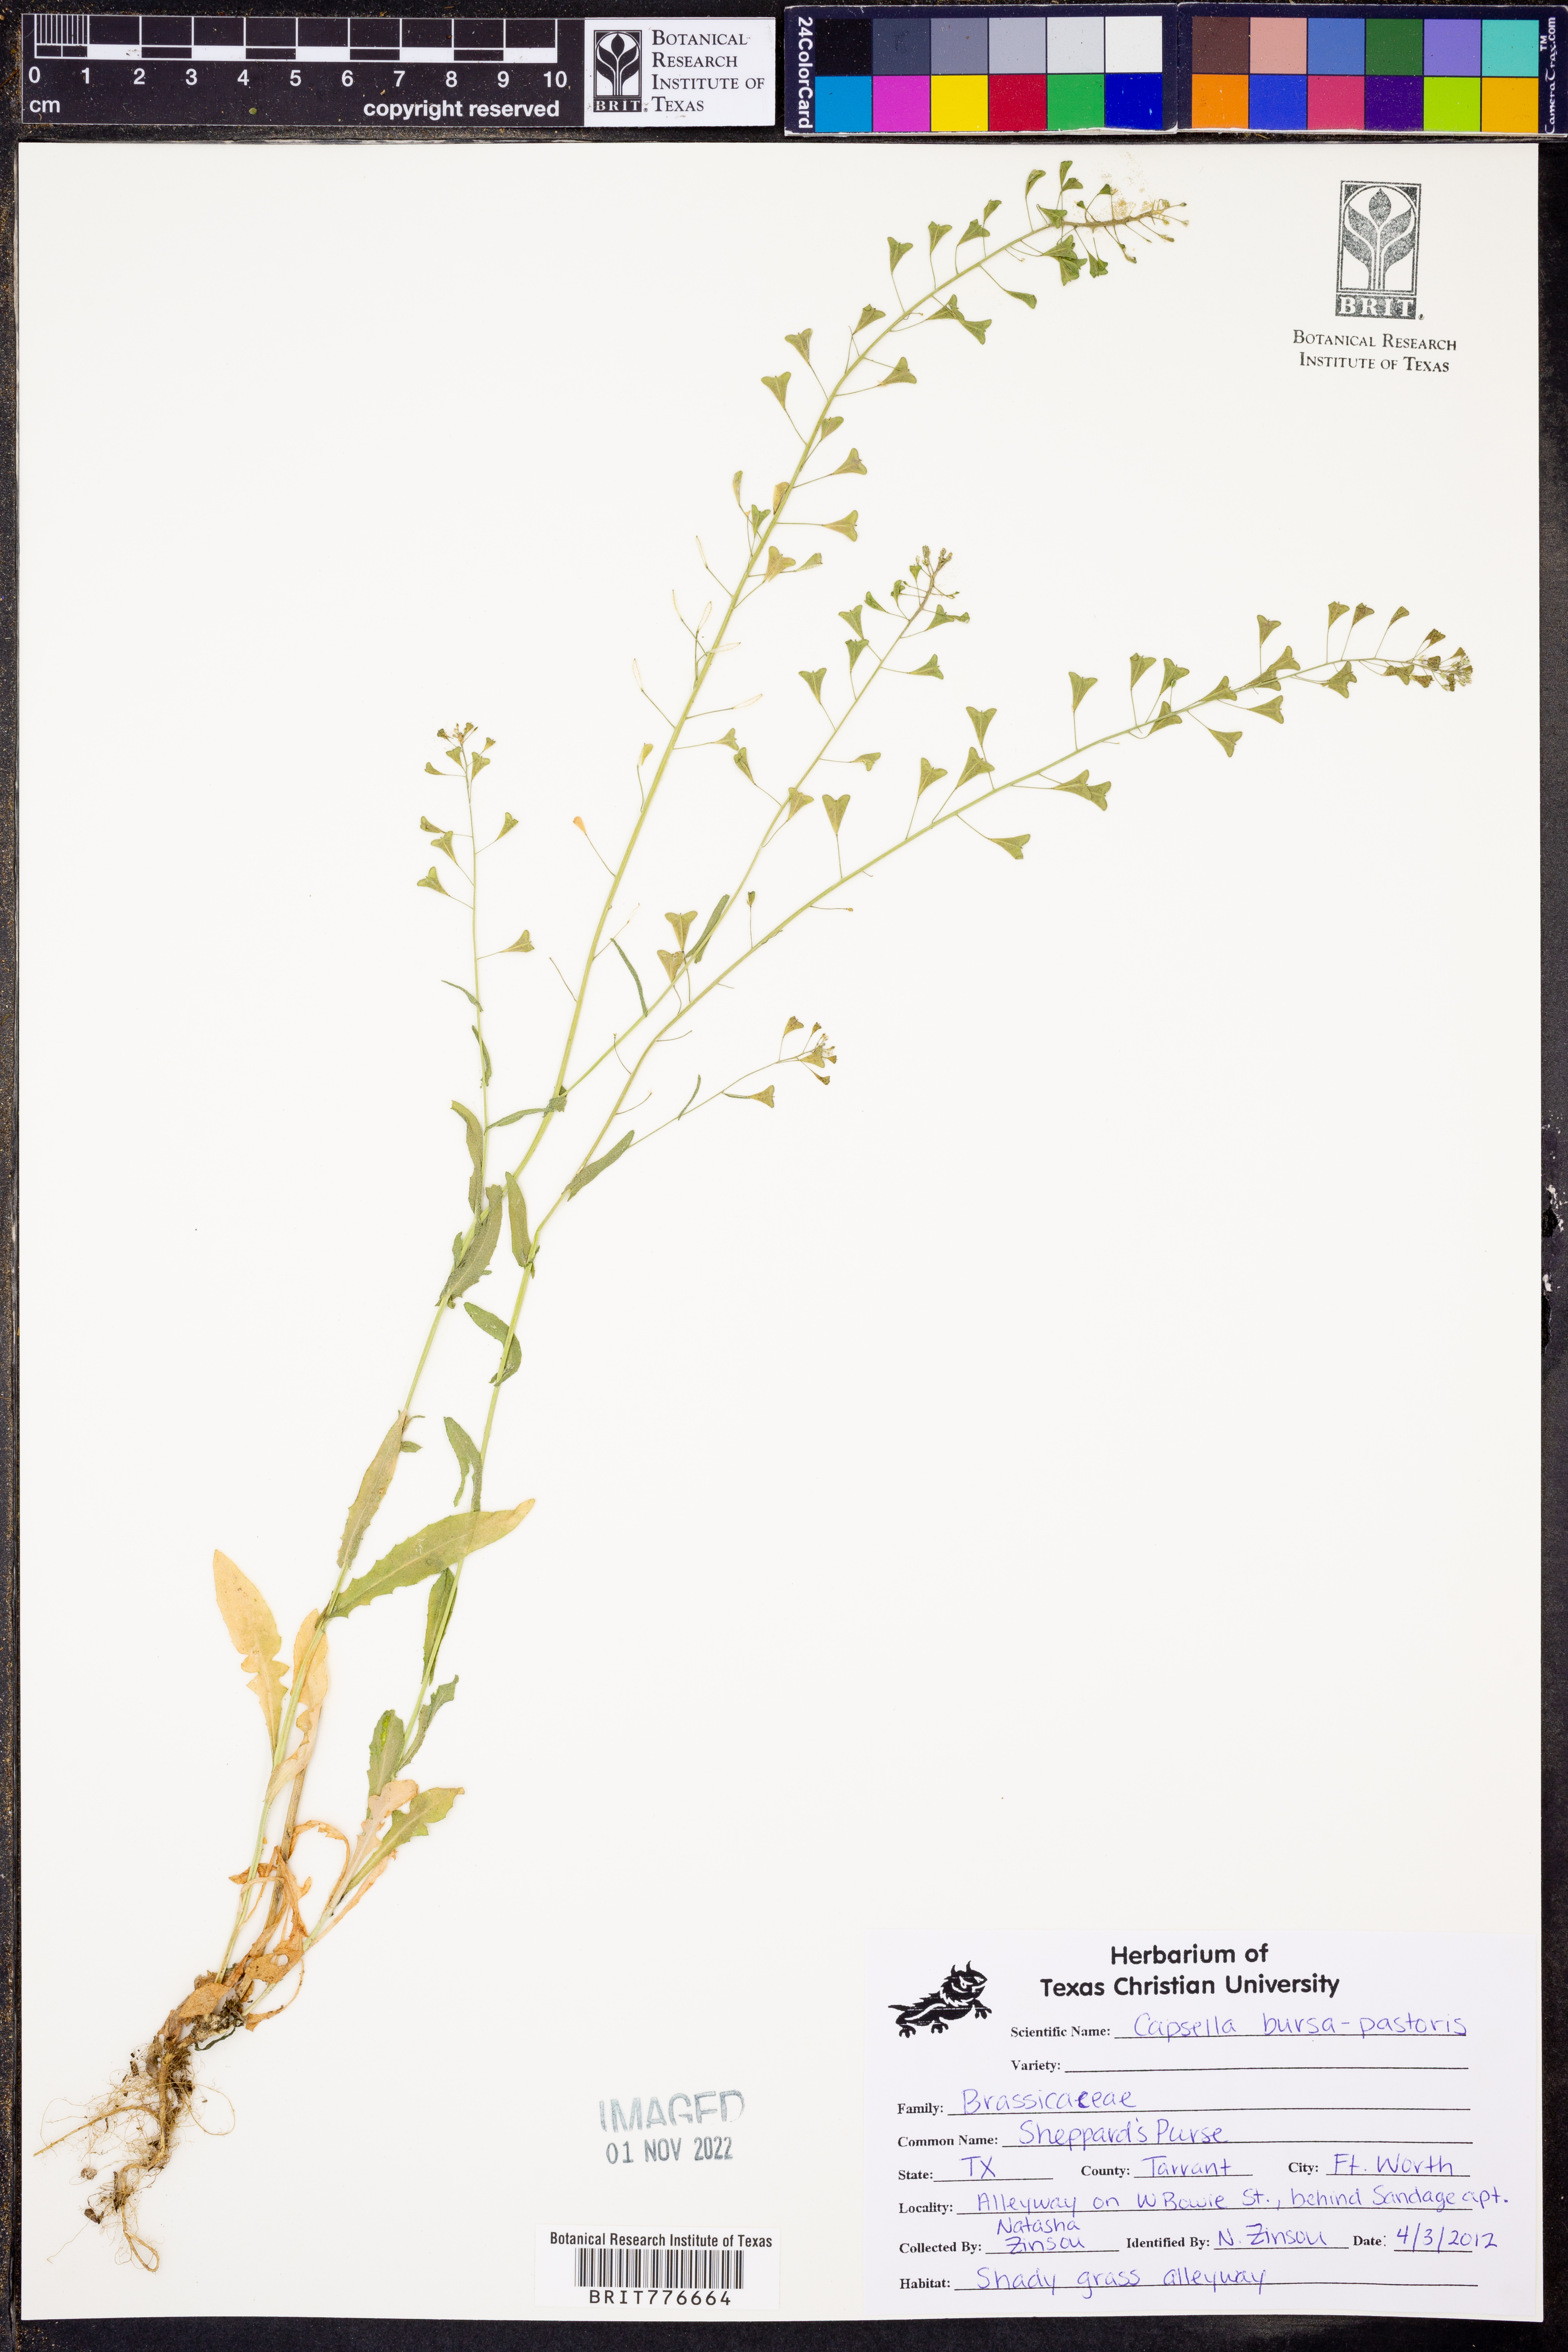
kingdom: Plantae
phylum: Tracheophyta
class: Magnoliopsida
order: Brassicales
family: Brassicaceae
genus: Capsella
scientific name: Capsella bursa-pastoris
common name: Shepherd's purse
